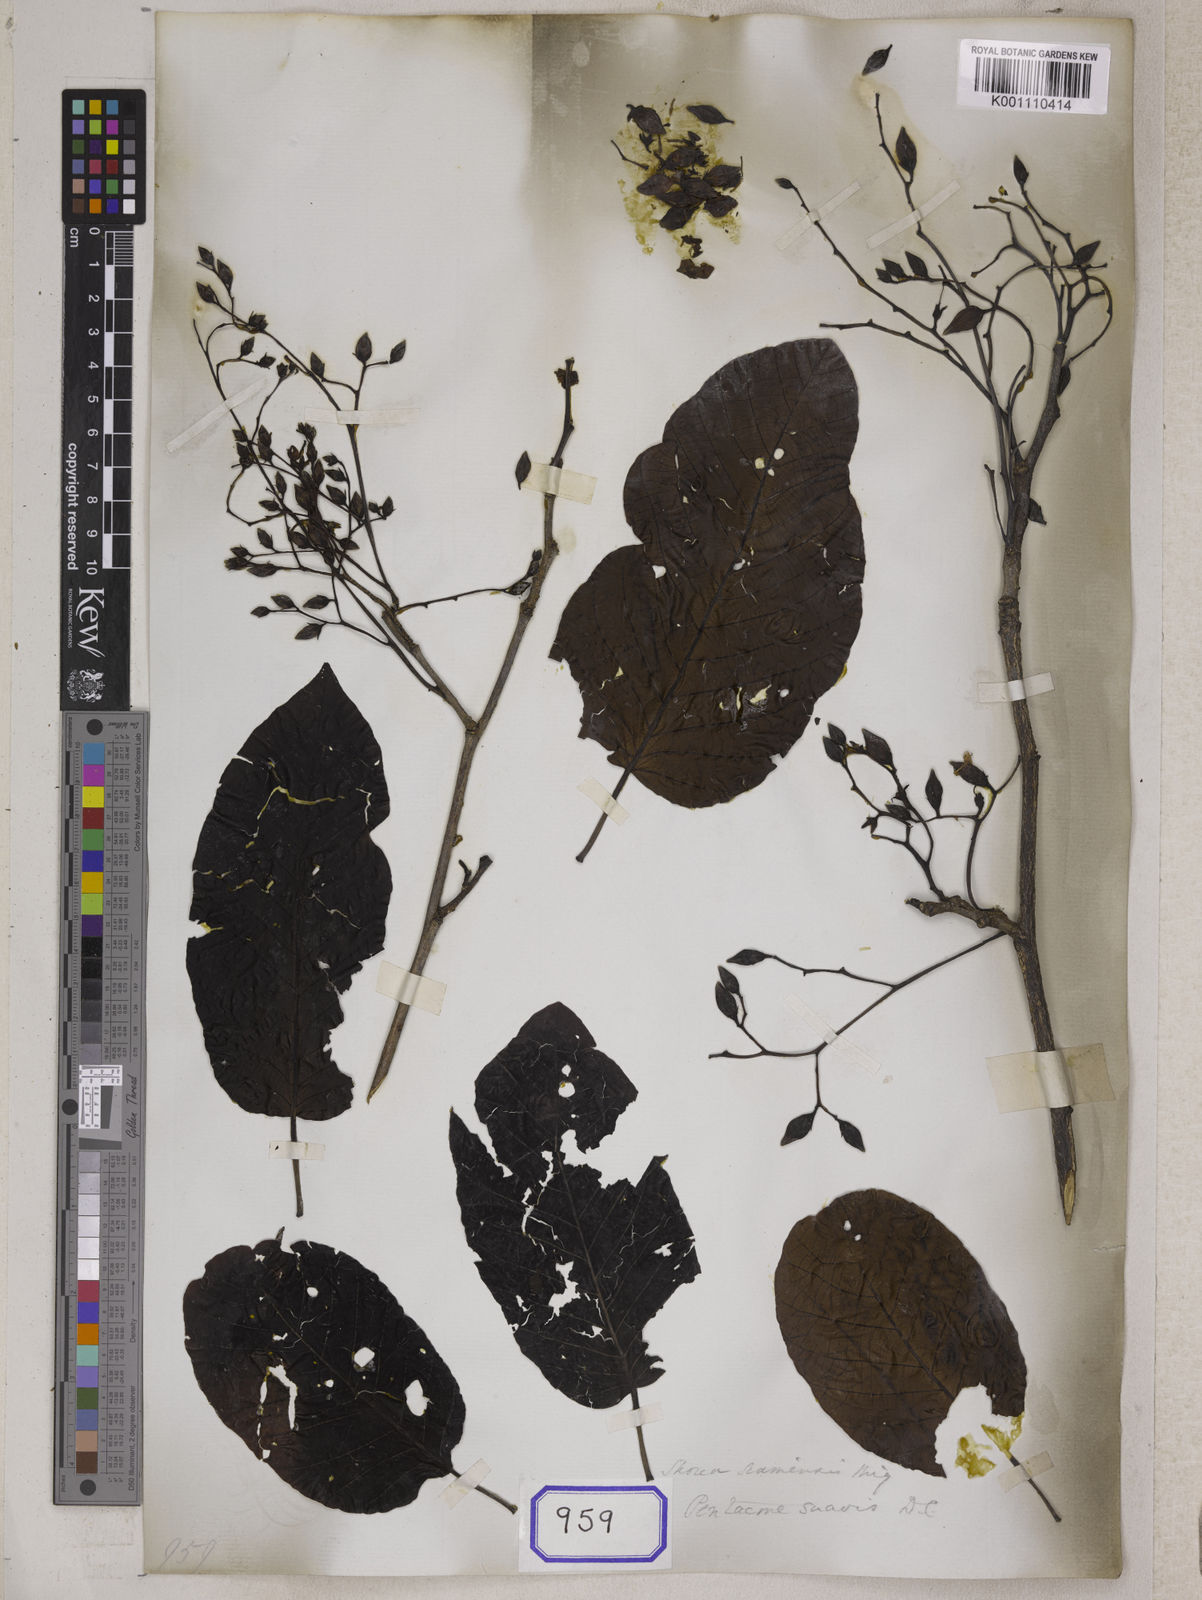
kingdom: Plantae
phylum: Tracheophyta
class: Magnoliopsida
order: Malvales
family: Dipterocarpaceae
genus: Pentacme
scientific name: Pentacme siamensis
